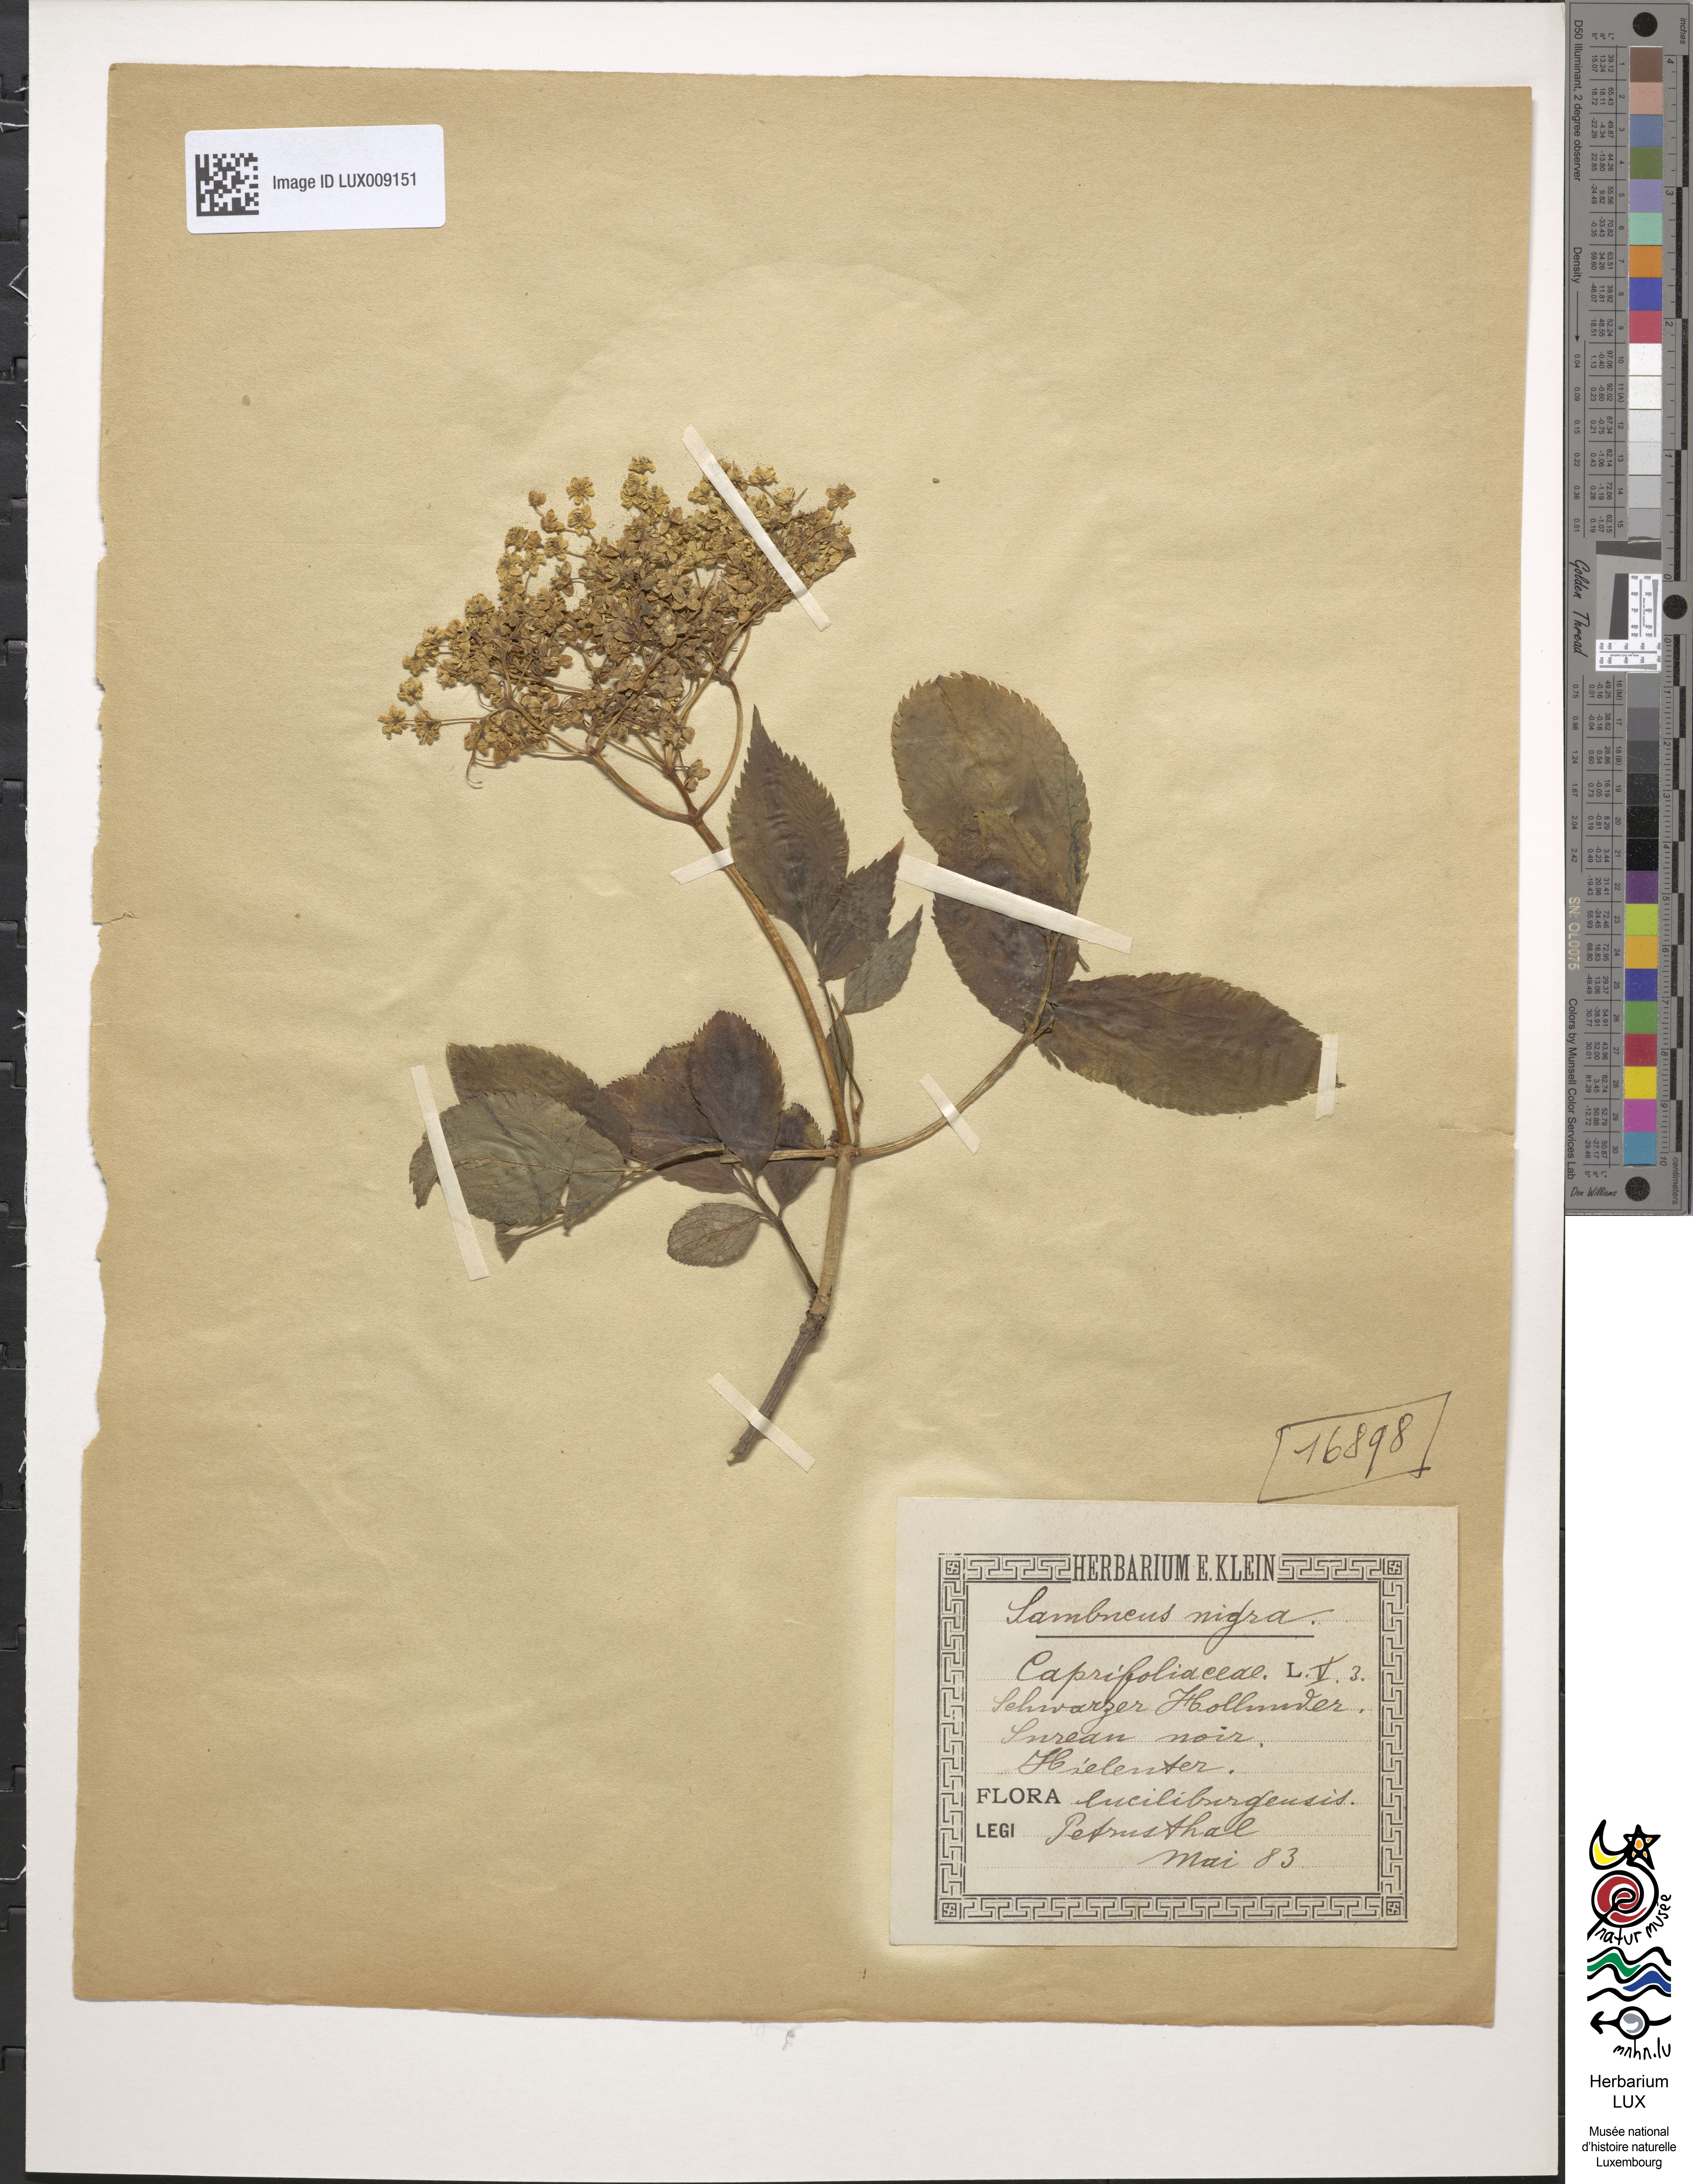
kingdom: Plantae
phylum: Tracheophyta
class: Magnoliopsida
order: Dipsacales
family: Viburnaceae
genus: Sambucus
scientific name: Sambucus nigra
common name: Elder
